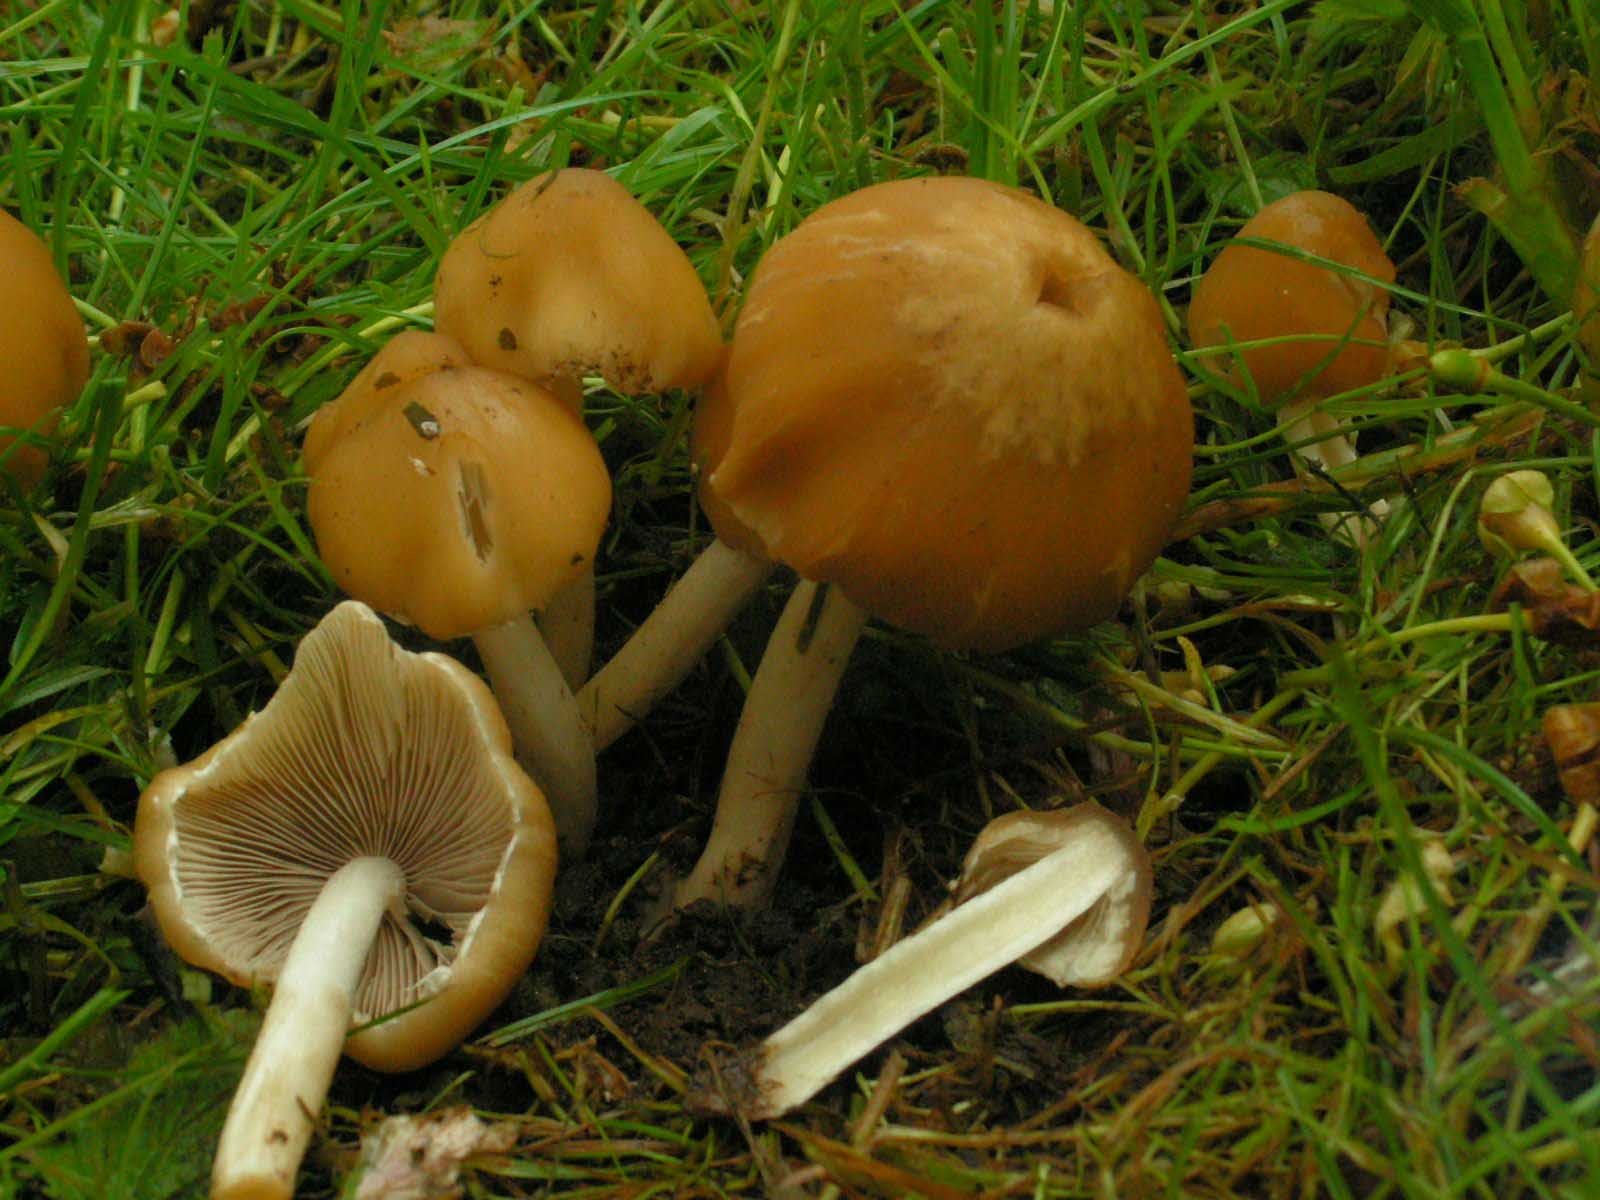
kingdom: Fungi
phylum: Basidiomycota
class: Agaricomycetes
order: Agaricales
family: Psathyrellaceae
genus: Candolleomyces
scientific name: Candolleomyces candolleanus
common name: Candolles mørkhat
